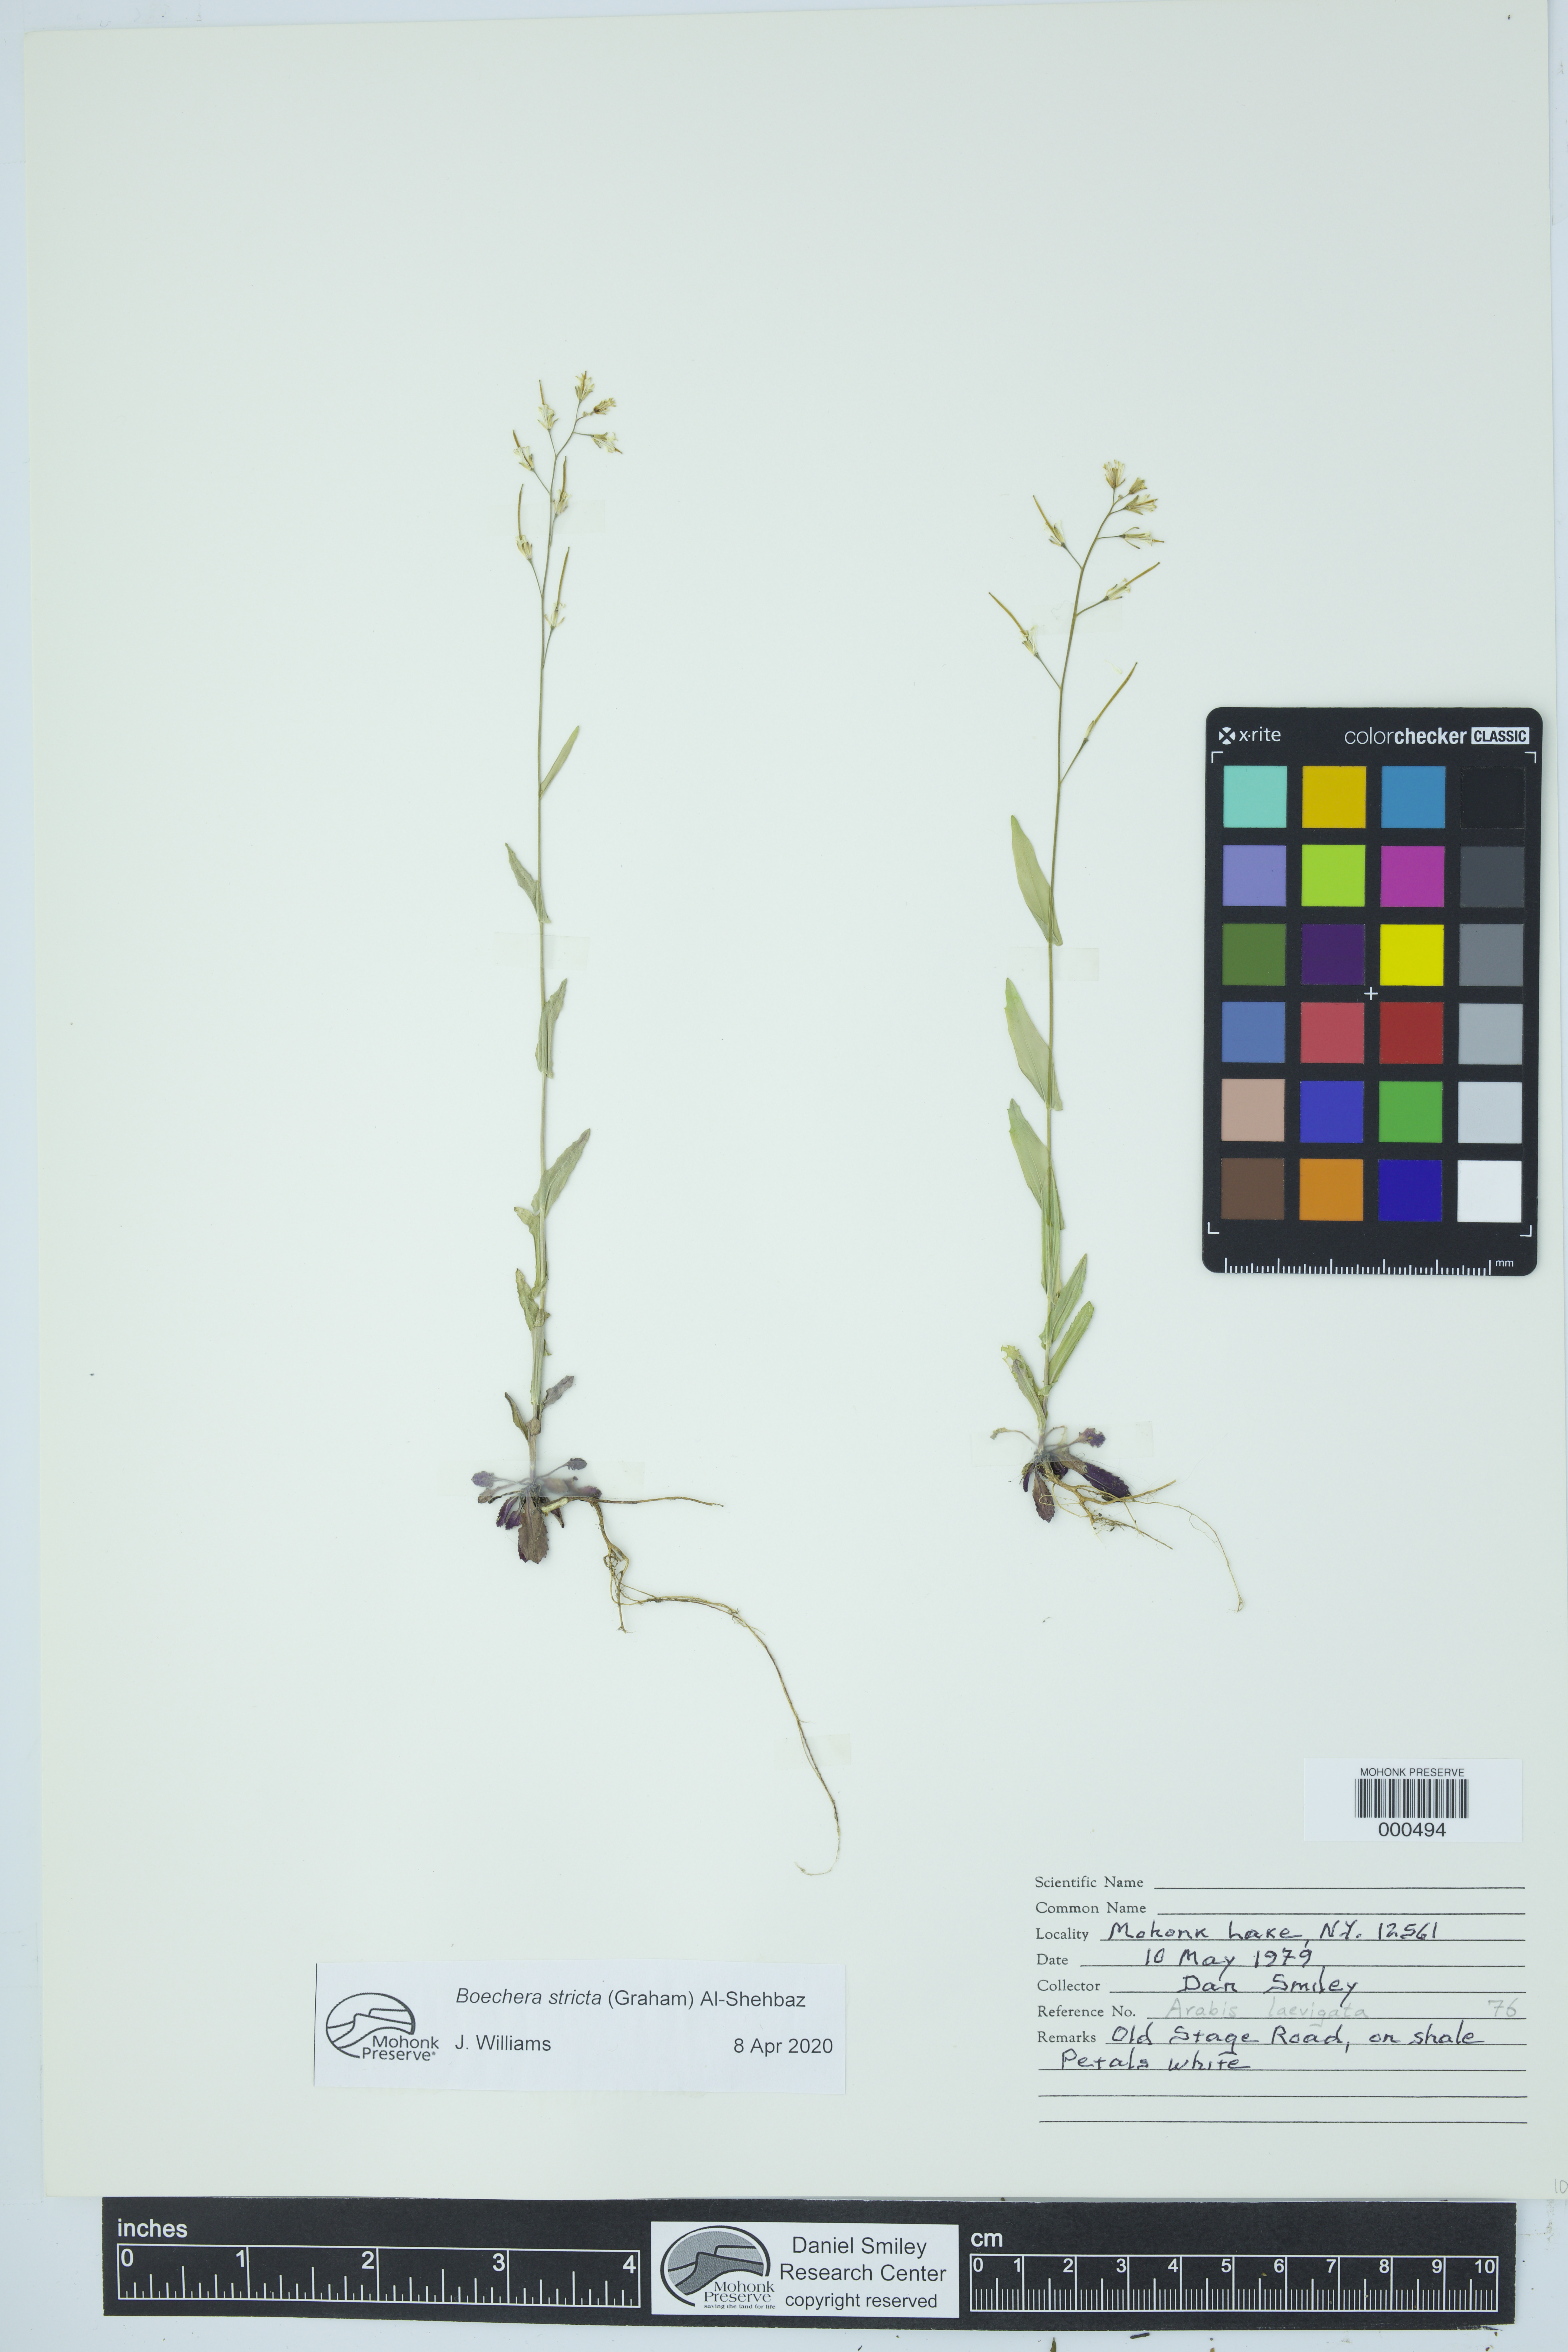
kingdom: Plantae
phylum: Tracheophyta
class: Magnoliopsida
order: Brassicales
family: Brassicaceae
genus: Boechera
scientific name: Boechera stricta
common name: Canadian rockcress
